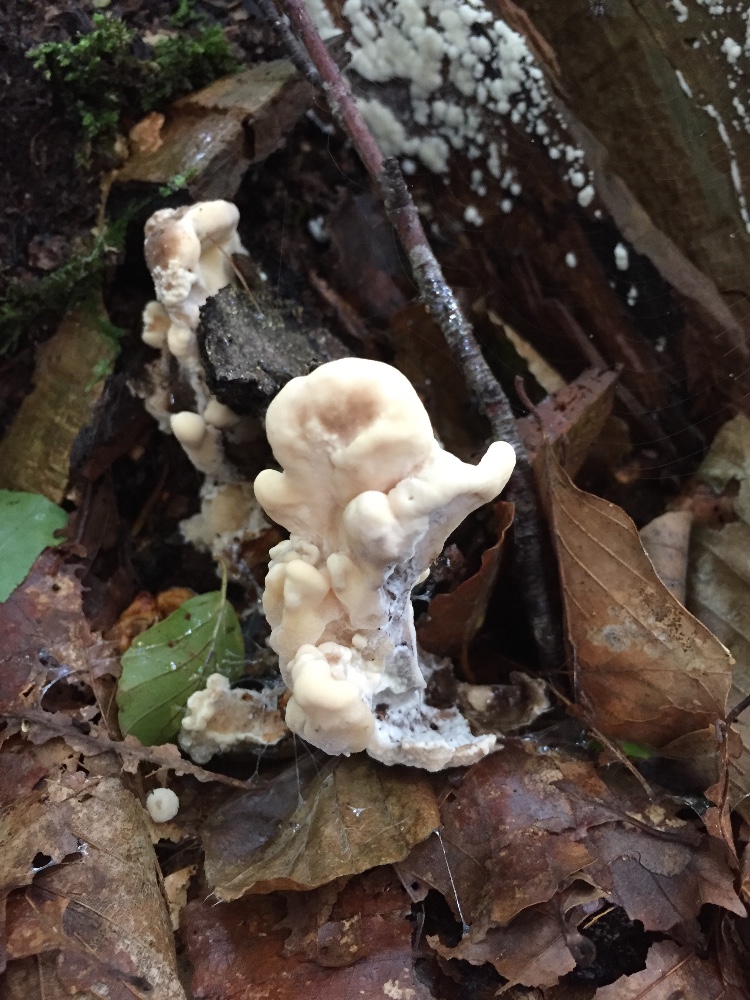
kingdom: Fungi
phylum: Basidiomycota
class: Agaricomycetes
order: Polyporales
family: Meripilaceae
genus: Meripilus
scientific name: Meripilus giganteus
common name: kæmpeporesvamp
